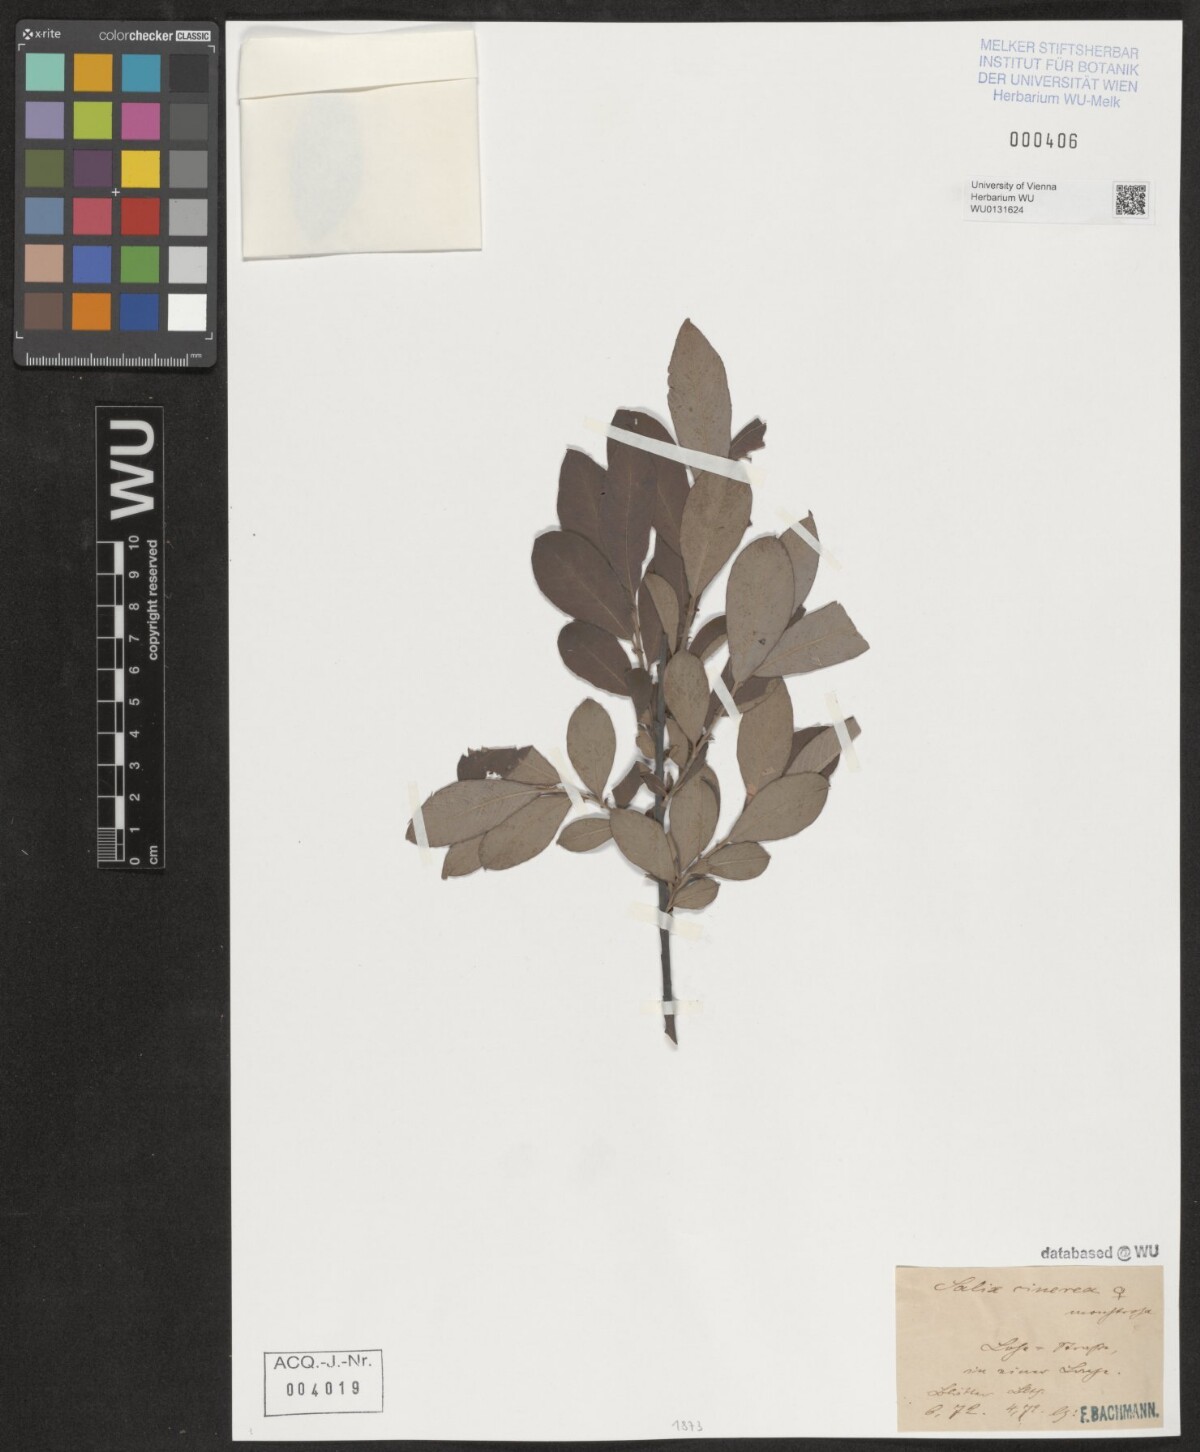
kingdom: Plantae
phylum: Tracheophyta
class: Magnoliopsida
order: Malpighiales
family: Salicaceae
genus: Salix
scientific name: Salix cinerea
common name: Common sallow
